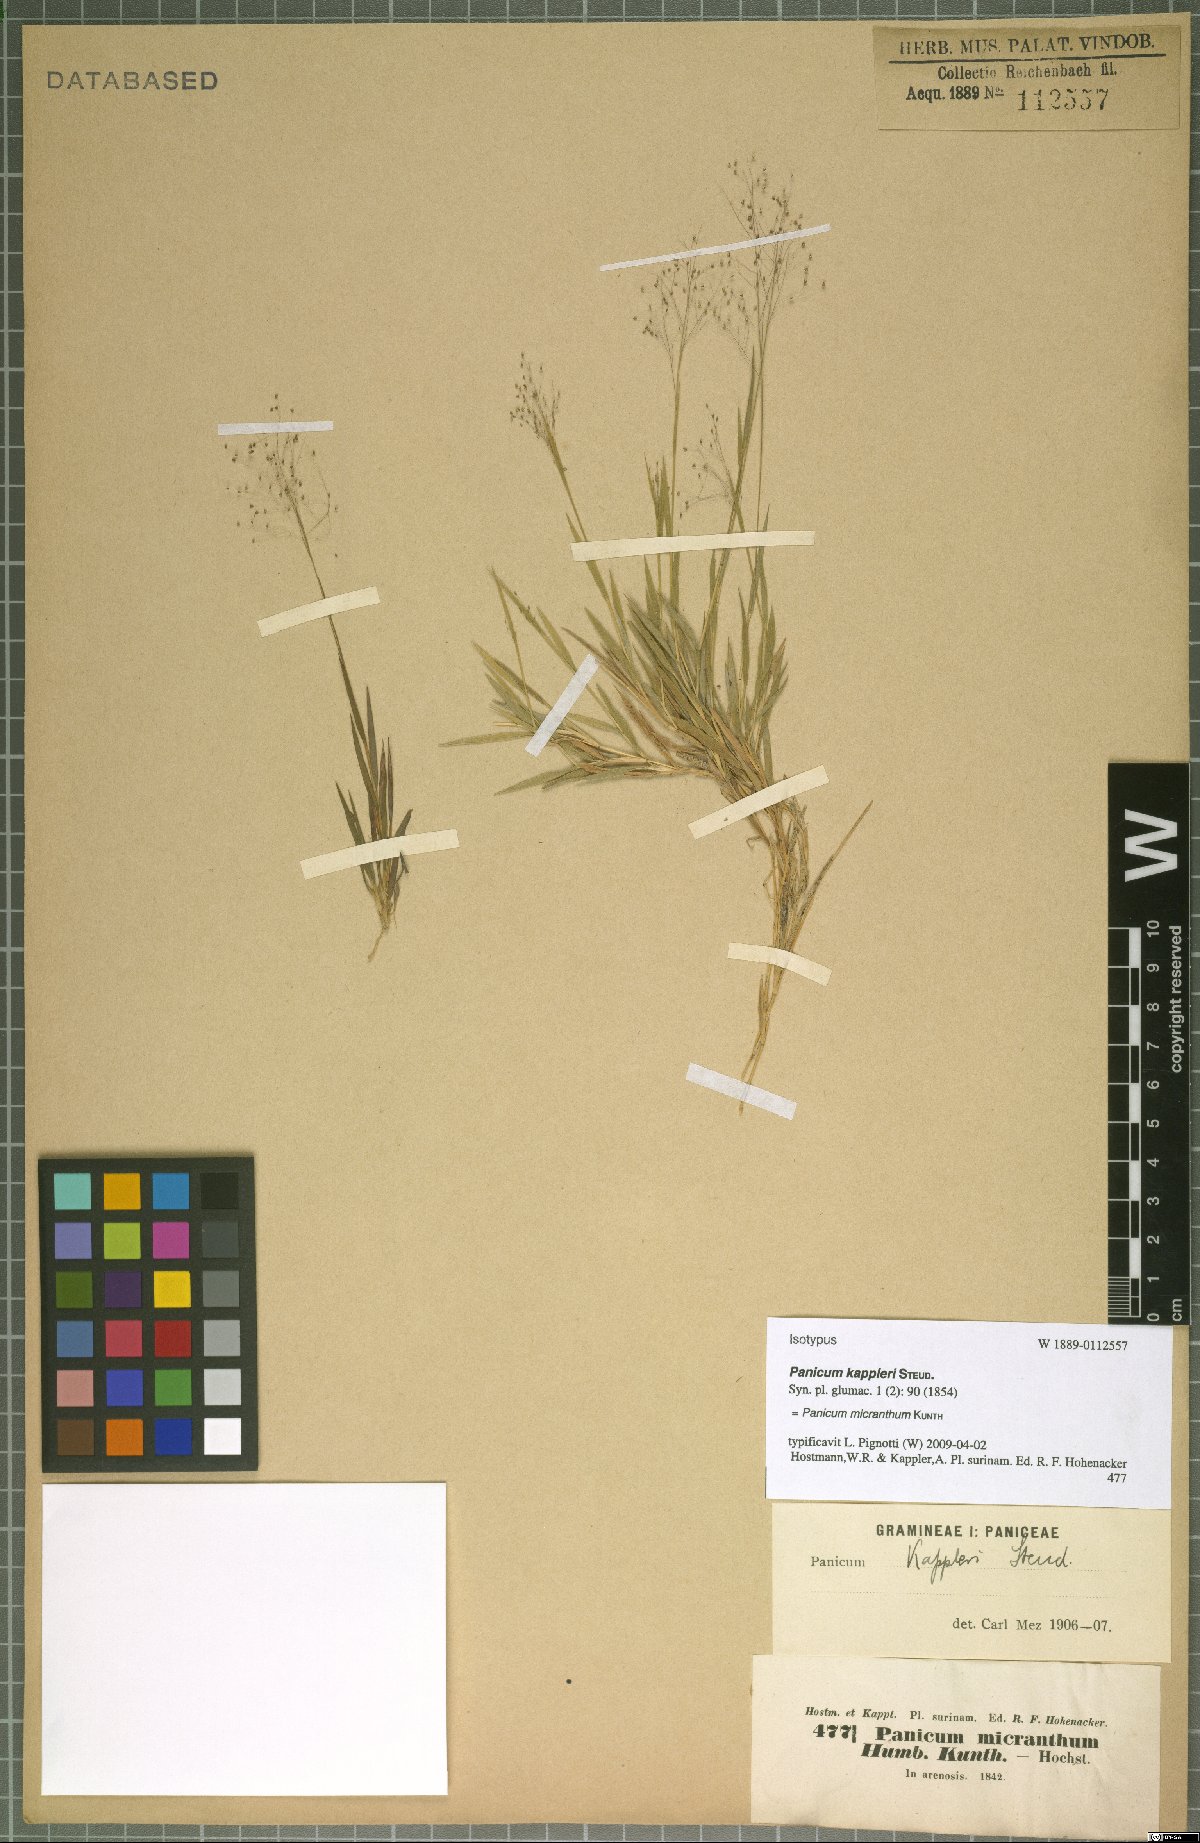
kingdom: Plantae
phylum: Tracheophyta
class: Liliopsida
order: Poales
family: Poaceae
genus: Trichanthecium
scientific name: Trichanthecium micranthum
